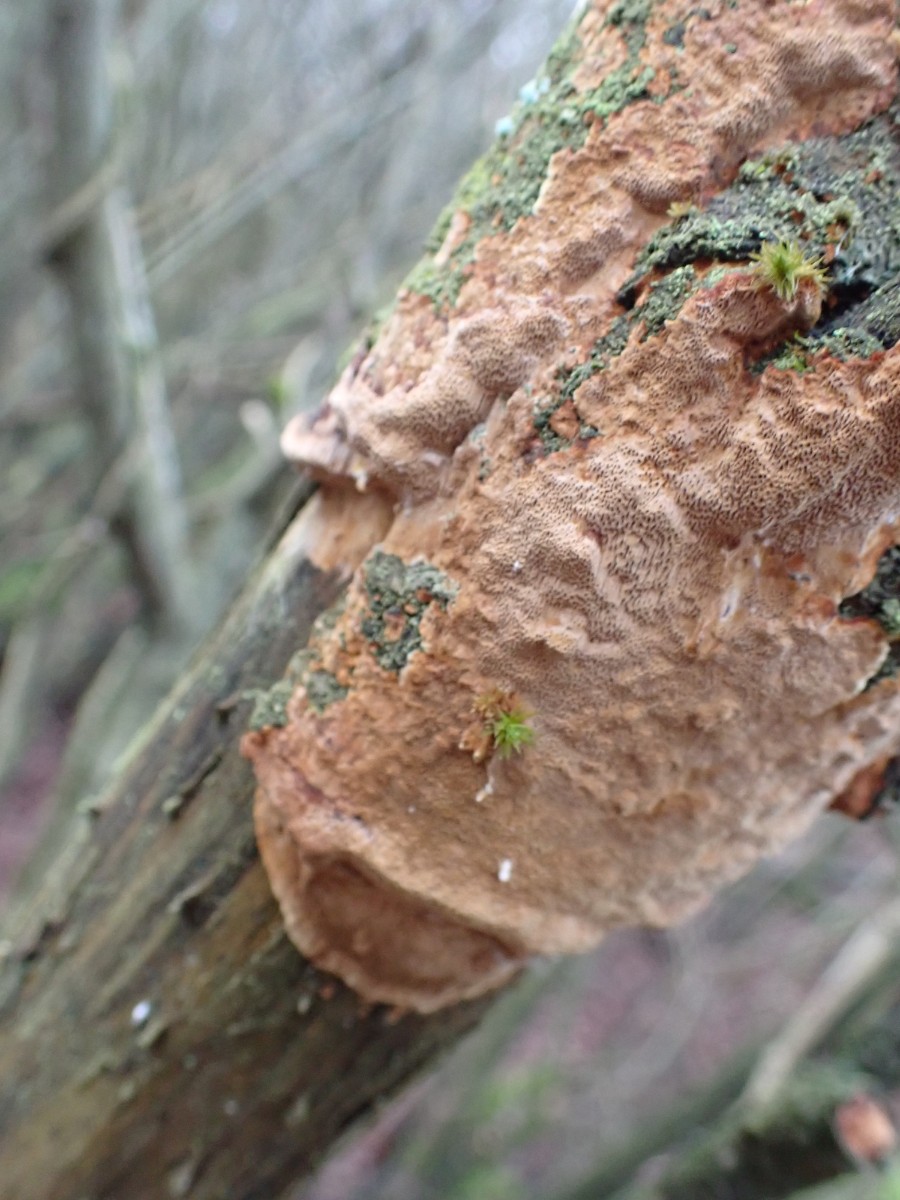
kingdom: Fungi
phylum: Basidiomycota
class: Agaricomycetes
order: Hymenochaetales
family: Hymenochaetaceae
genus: Fuscoporia
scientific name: Fuscoporia ferrea
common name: skorpe-ildporesvamp
